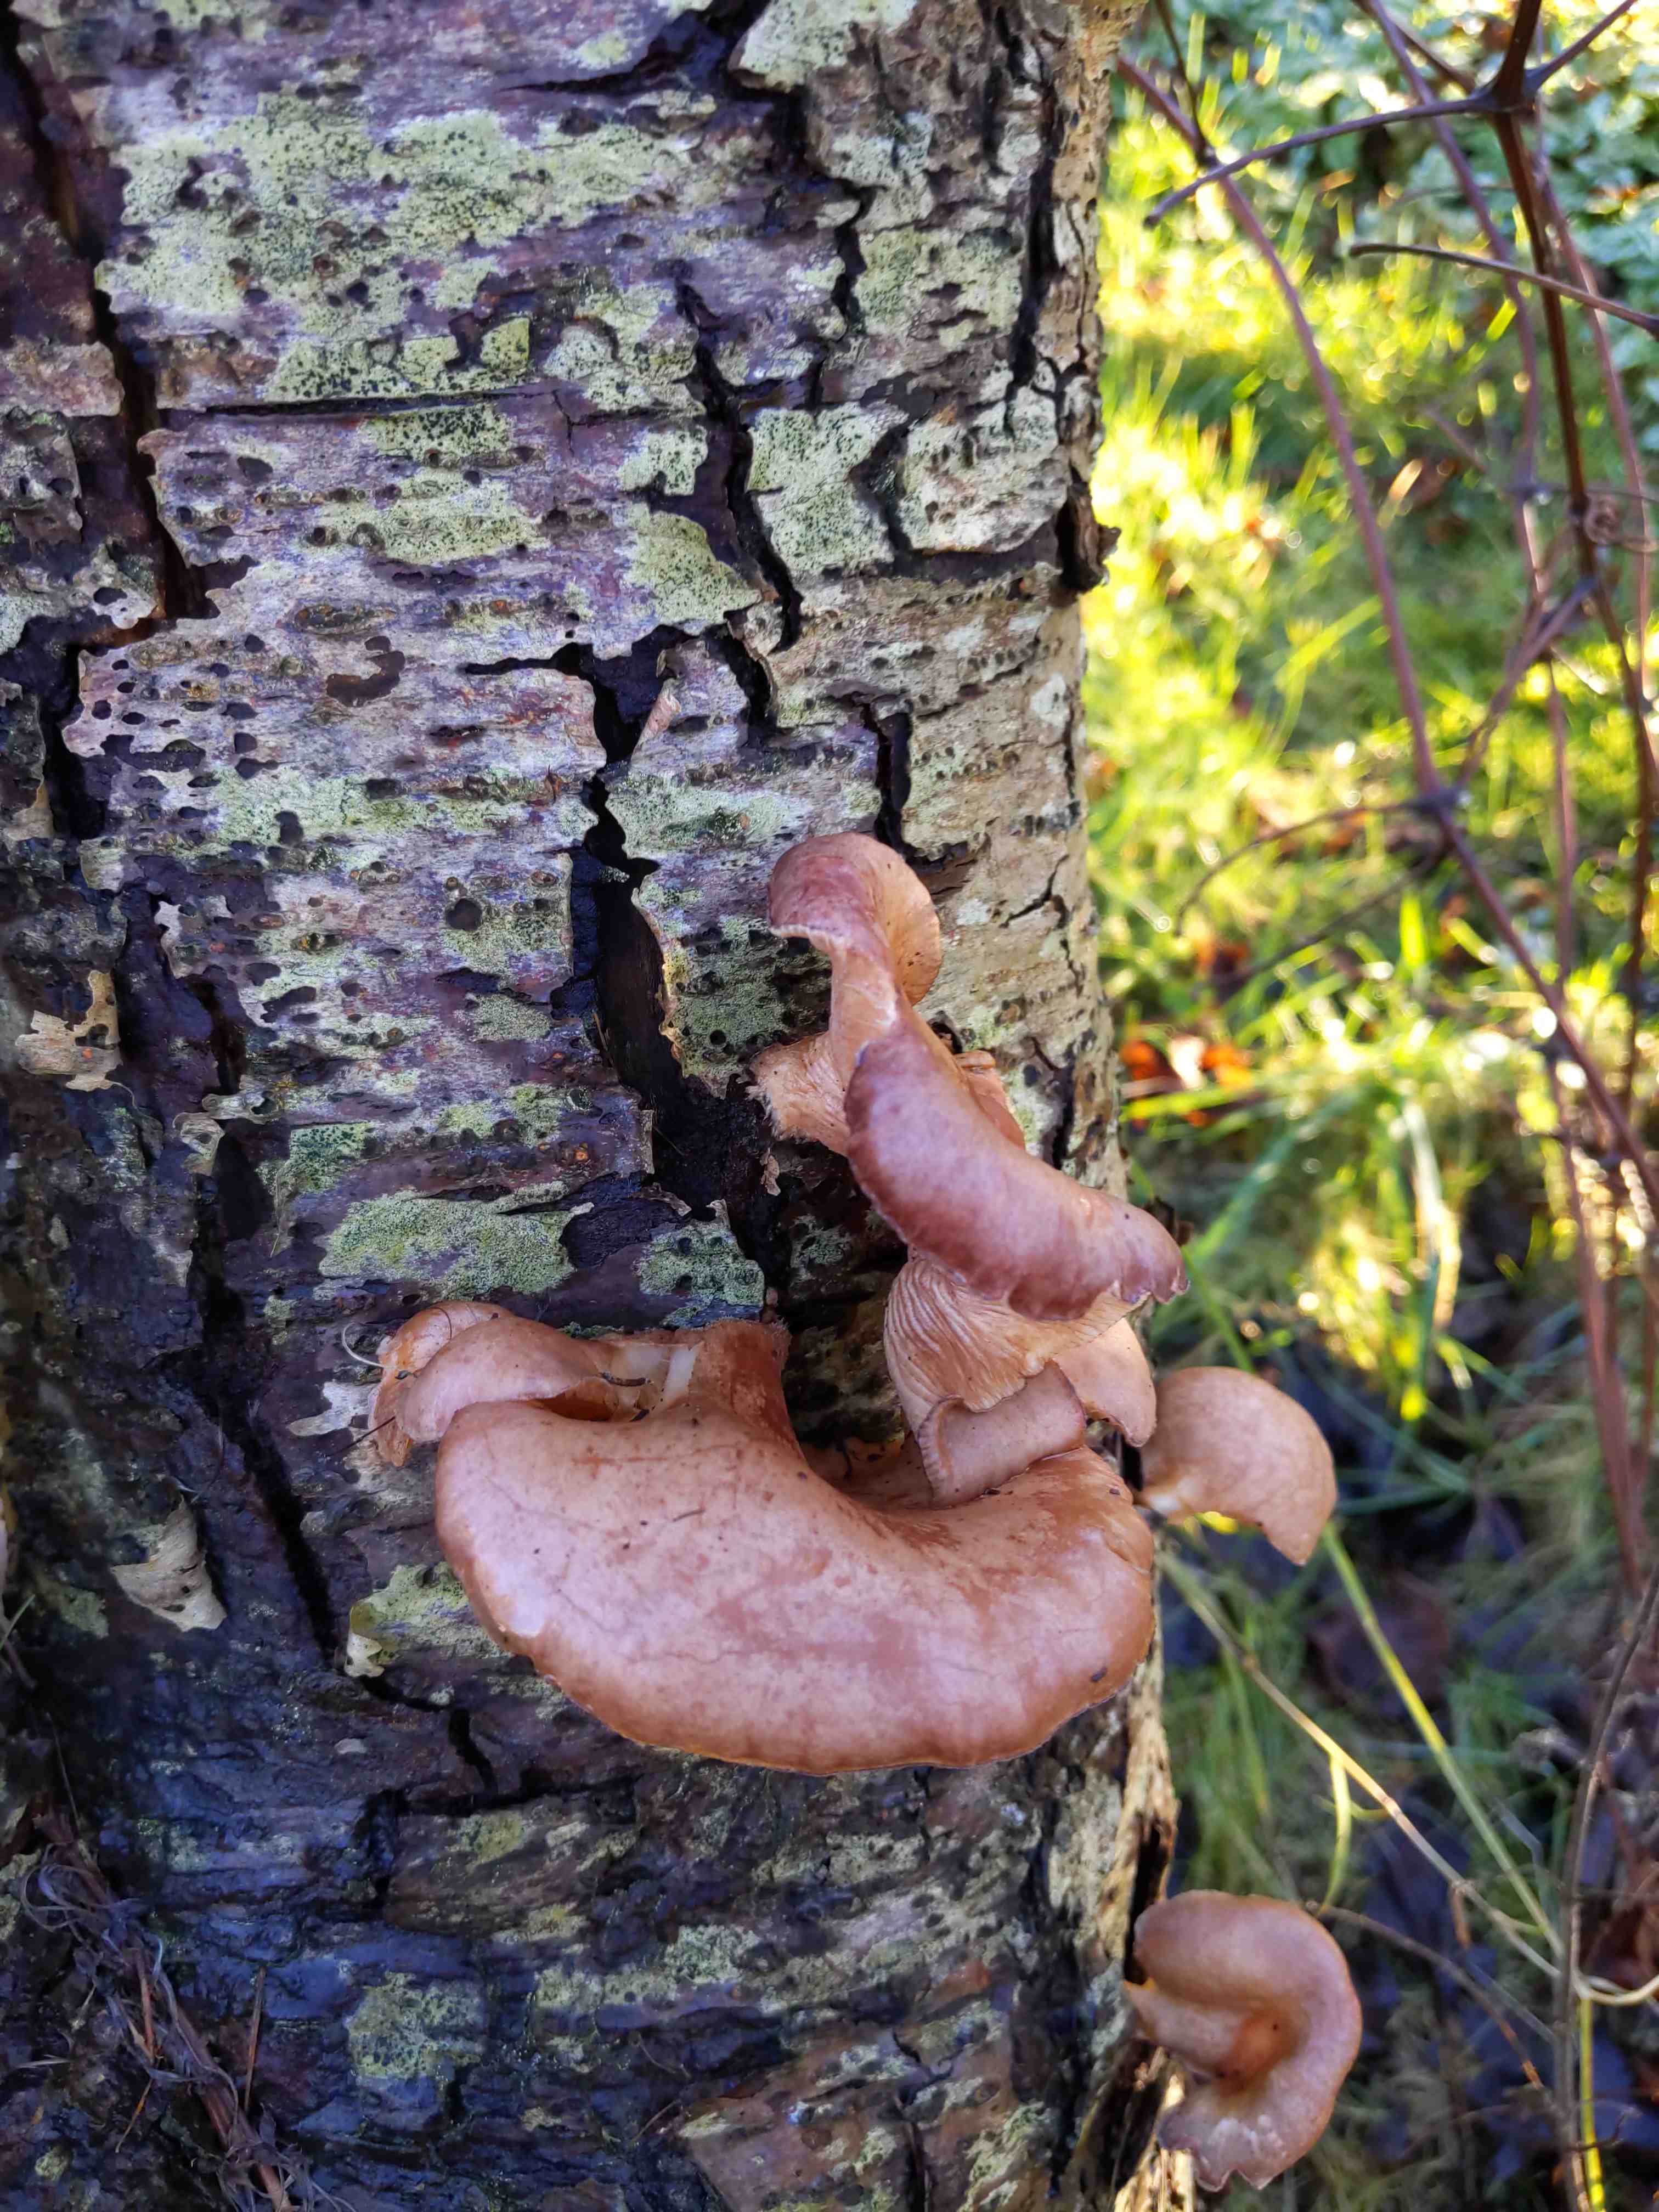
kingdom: Fungi
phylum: Basidiomycota
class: Agaricomycetes
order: Agaricales
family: Sarcomyxaceae
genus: Sarcomyxa
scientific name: Sarcomyxa serotina
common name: gummihat
